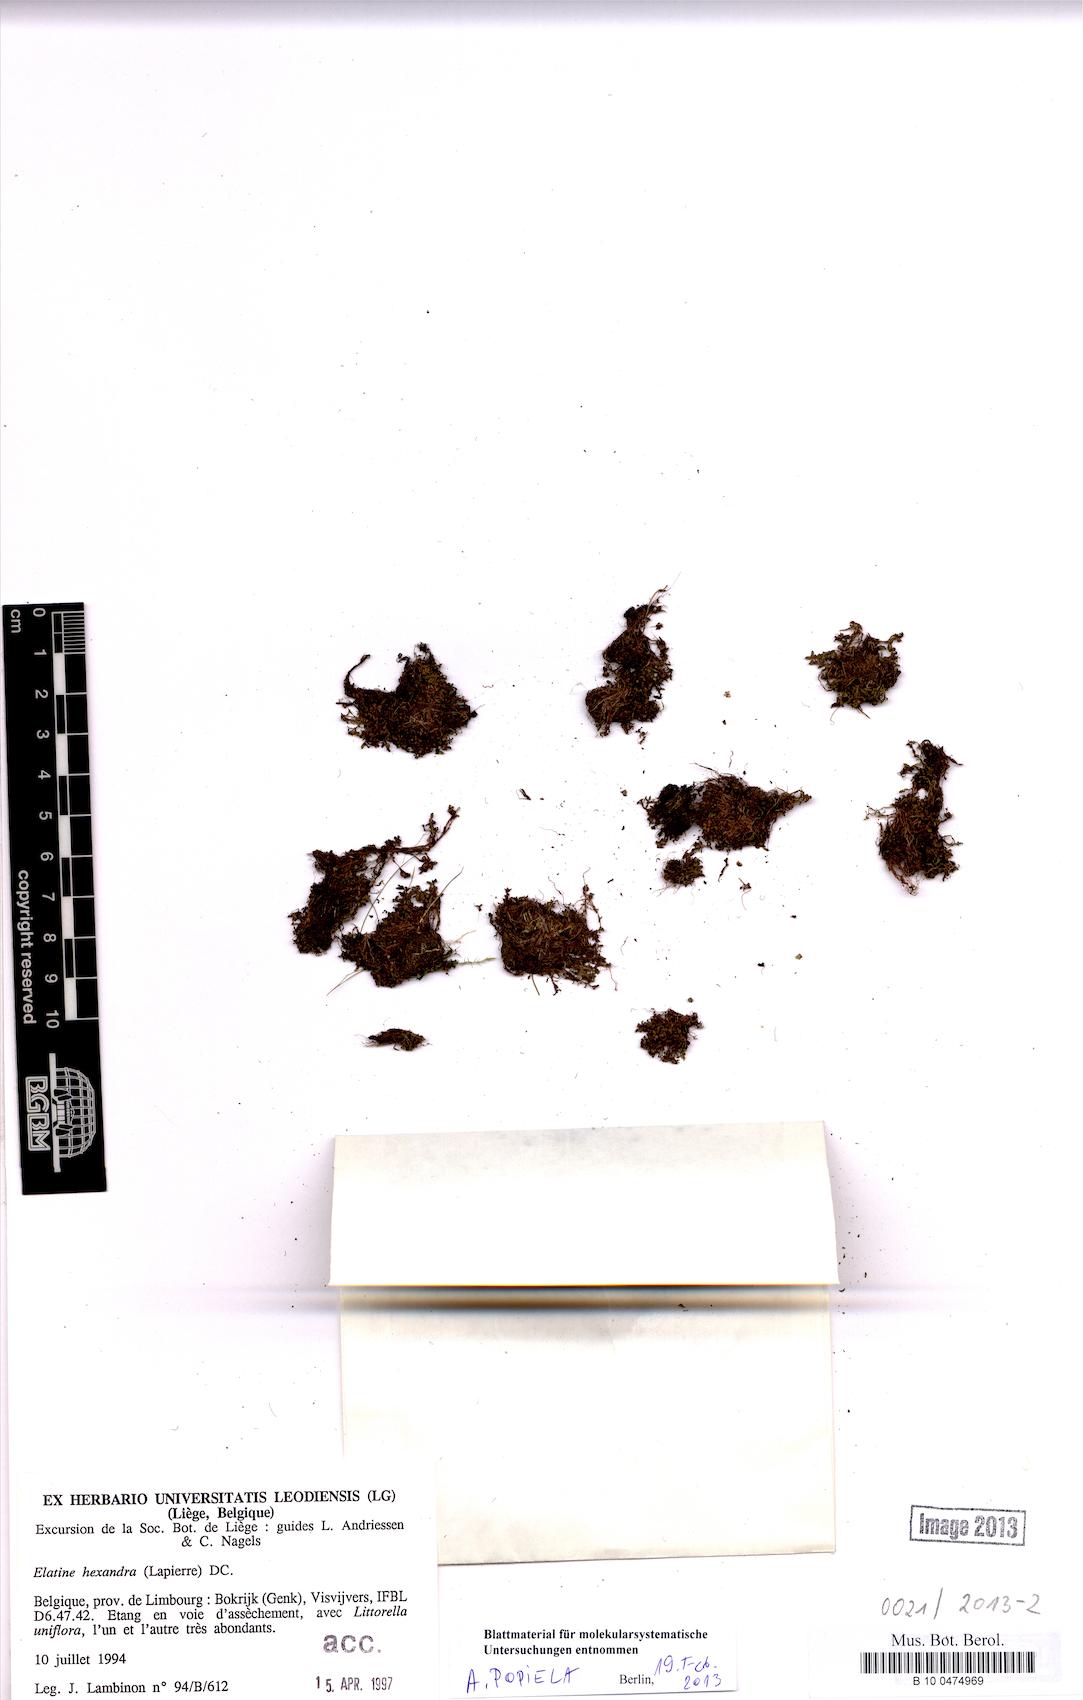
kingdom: Plantae
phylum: Tracheophyta
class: Magnoliopsida
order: Malpighiales
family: Elatinaceae
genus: Elatine
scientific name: Elatine hexandra
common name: Six-stamened waterwort
